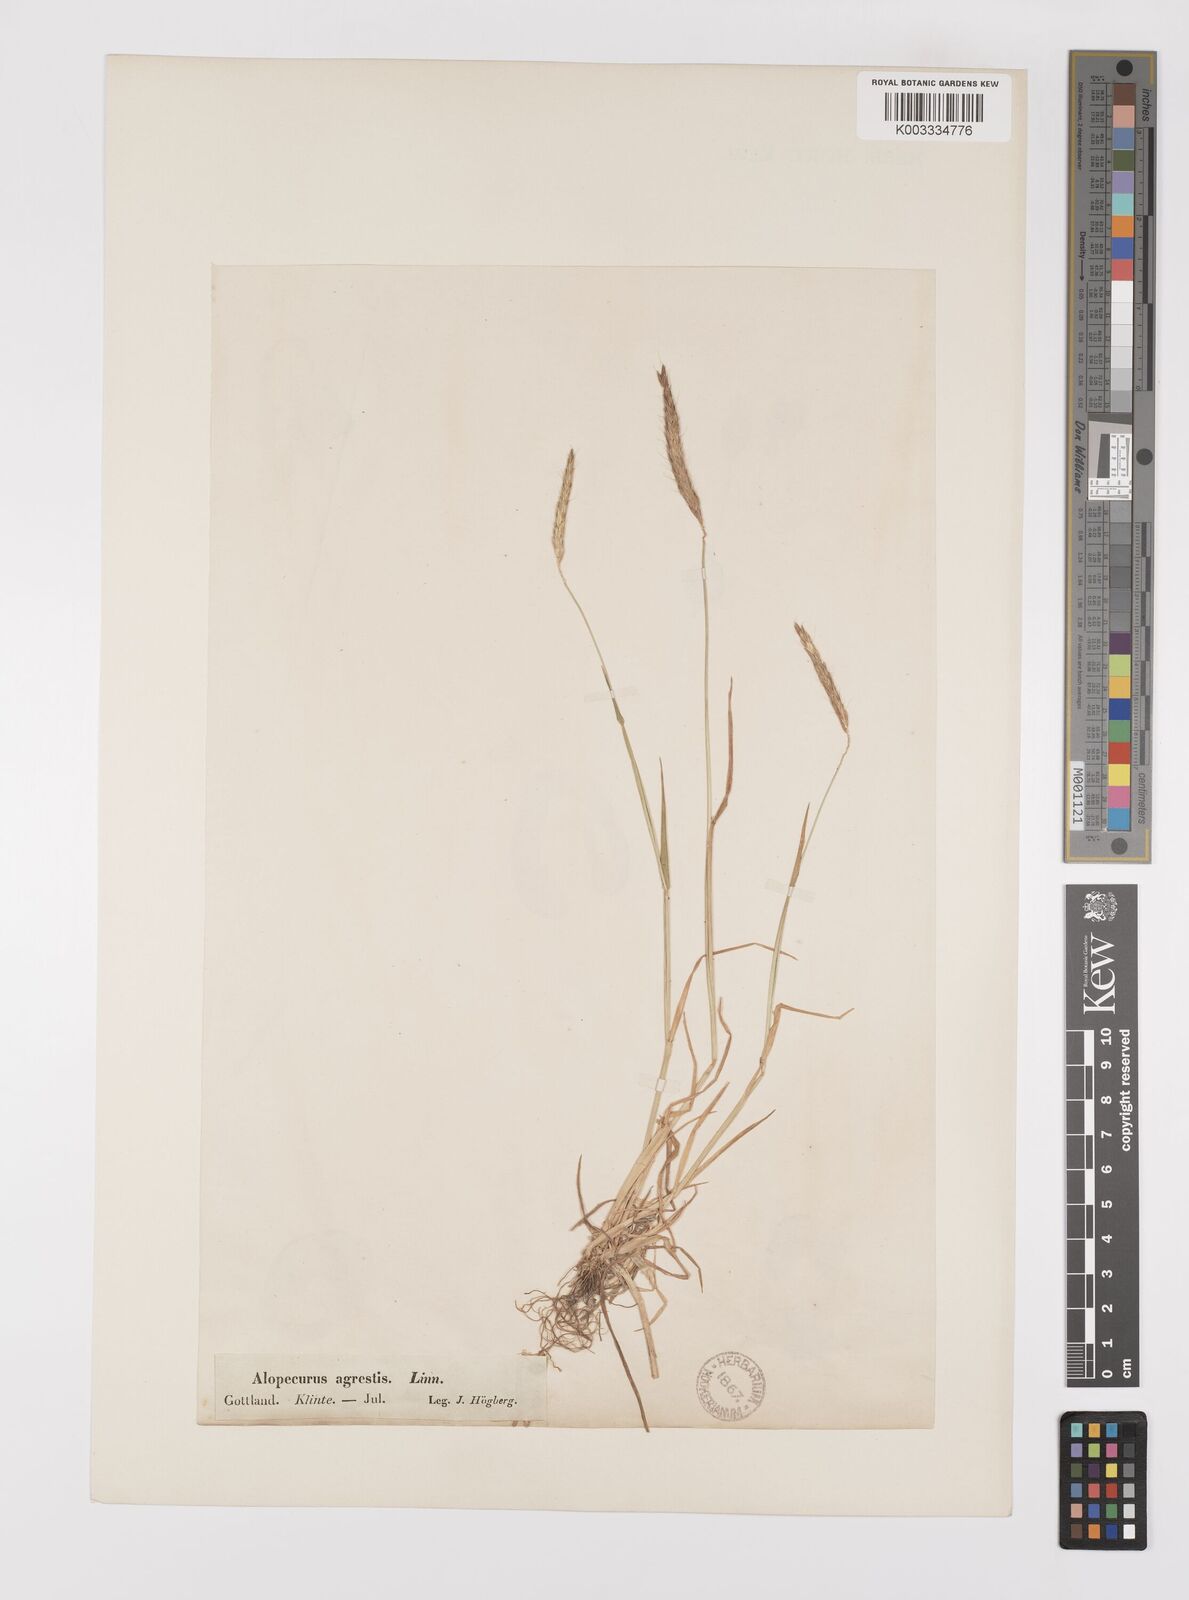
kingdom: Plantae
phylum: Tracheophyta
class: Liliopsida
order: Poales
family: Poaceae
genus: Alopecurus
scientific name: Alopecurus myosuroides
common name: Black-grass
